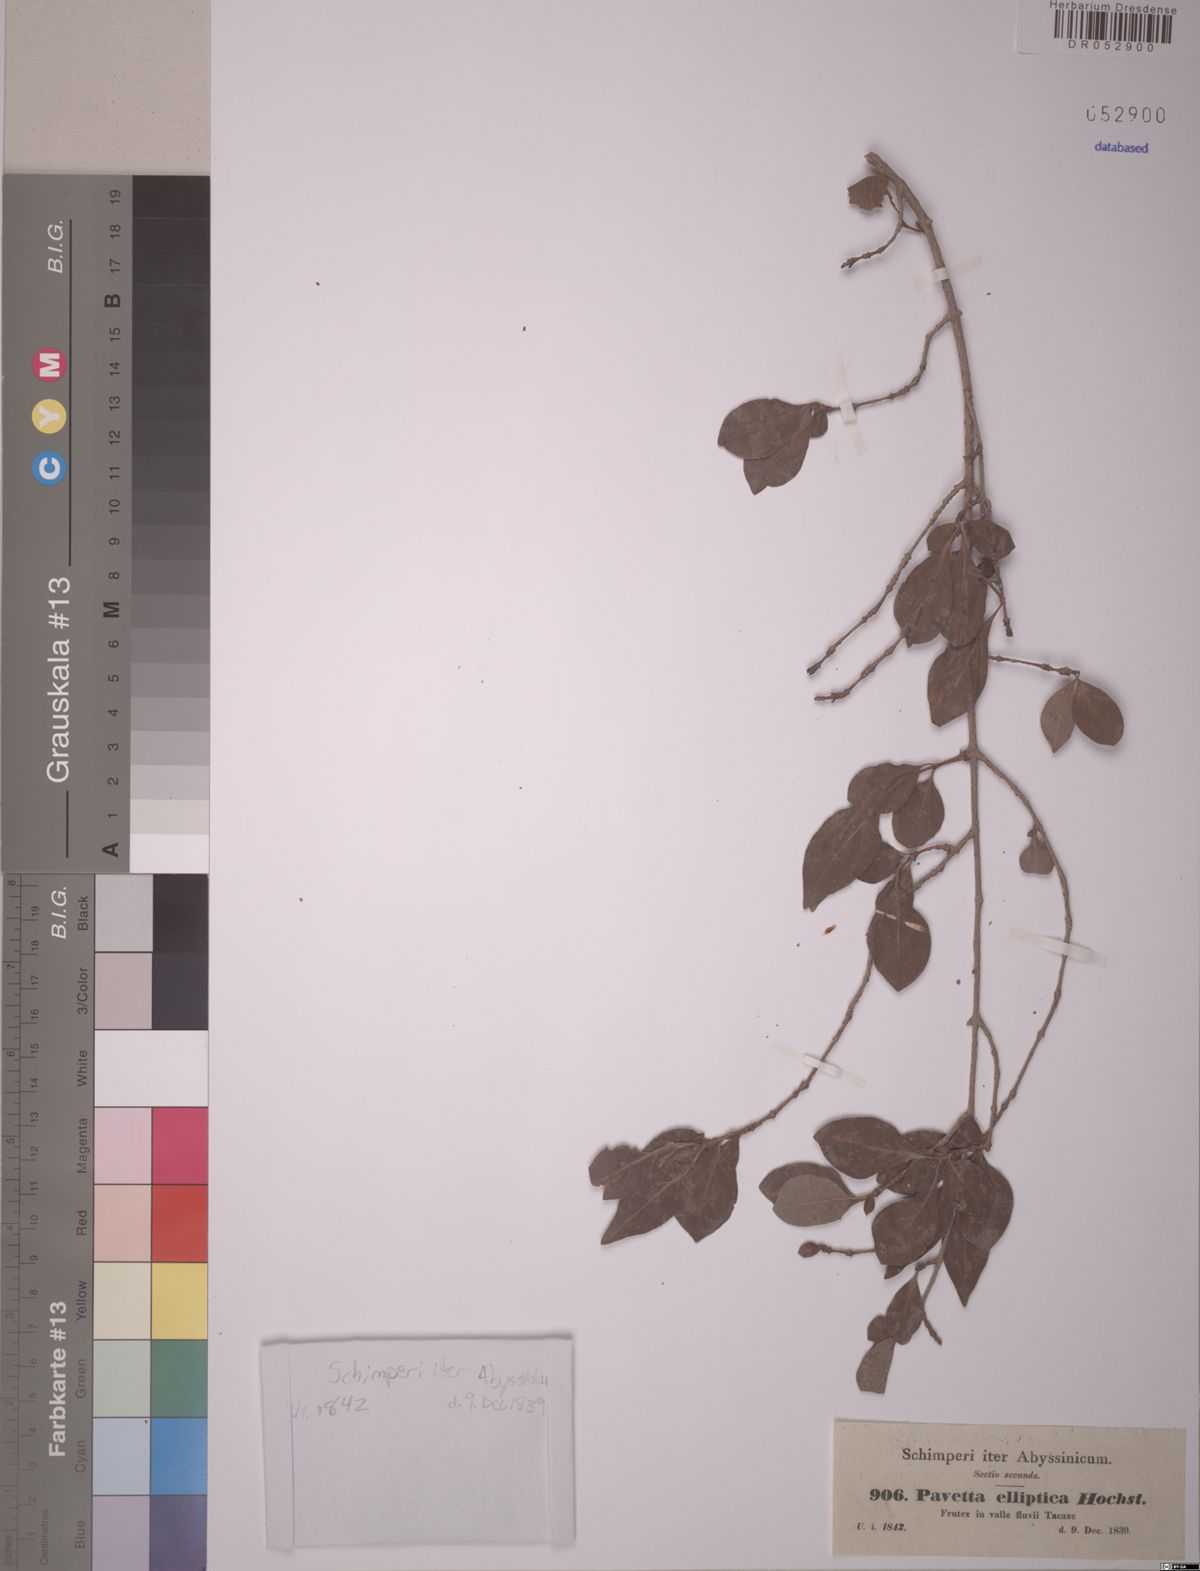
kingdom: Plantae
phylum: Tracheophyta
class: Magnoliopsida
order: Gentianales
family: Rubiaceae
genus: Feretia
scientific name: Feretia apodanthera
